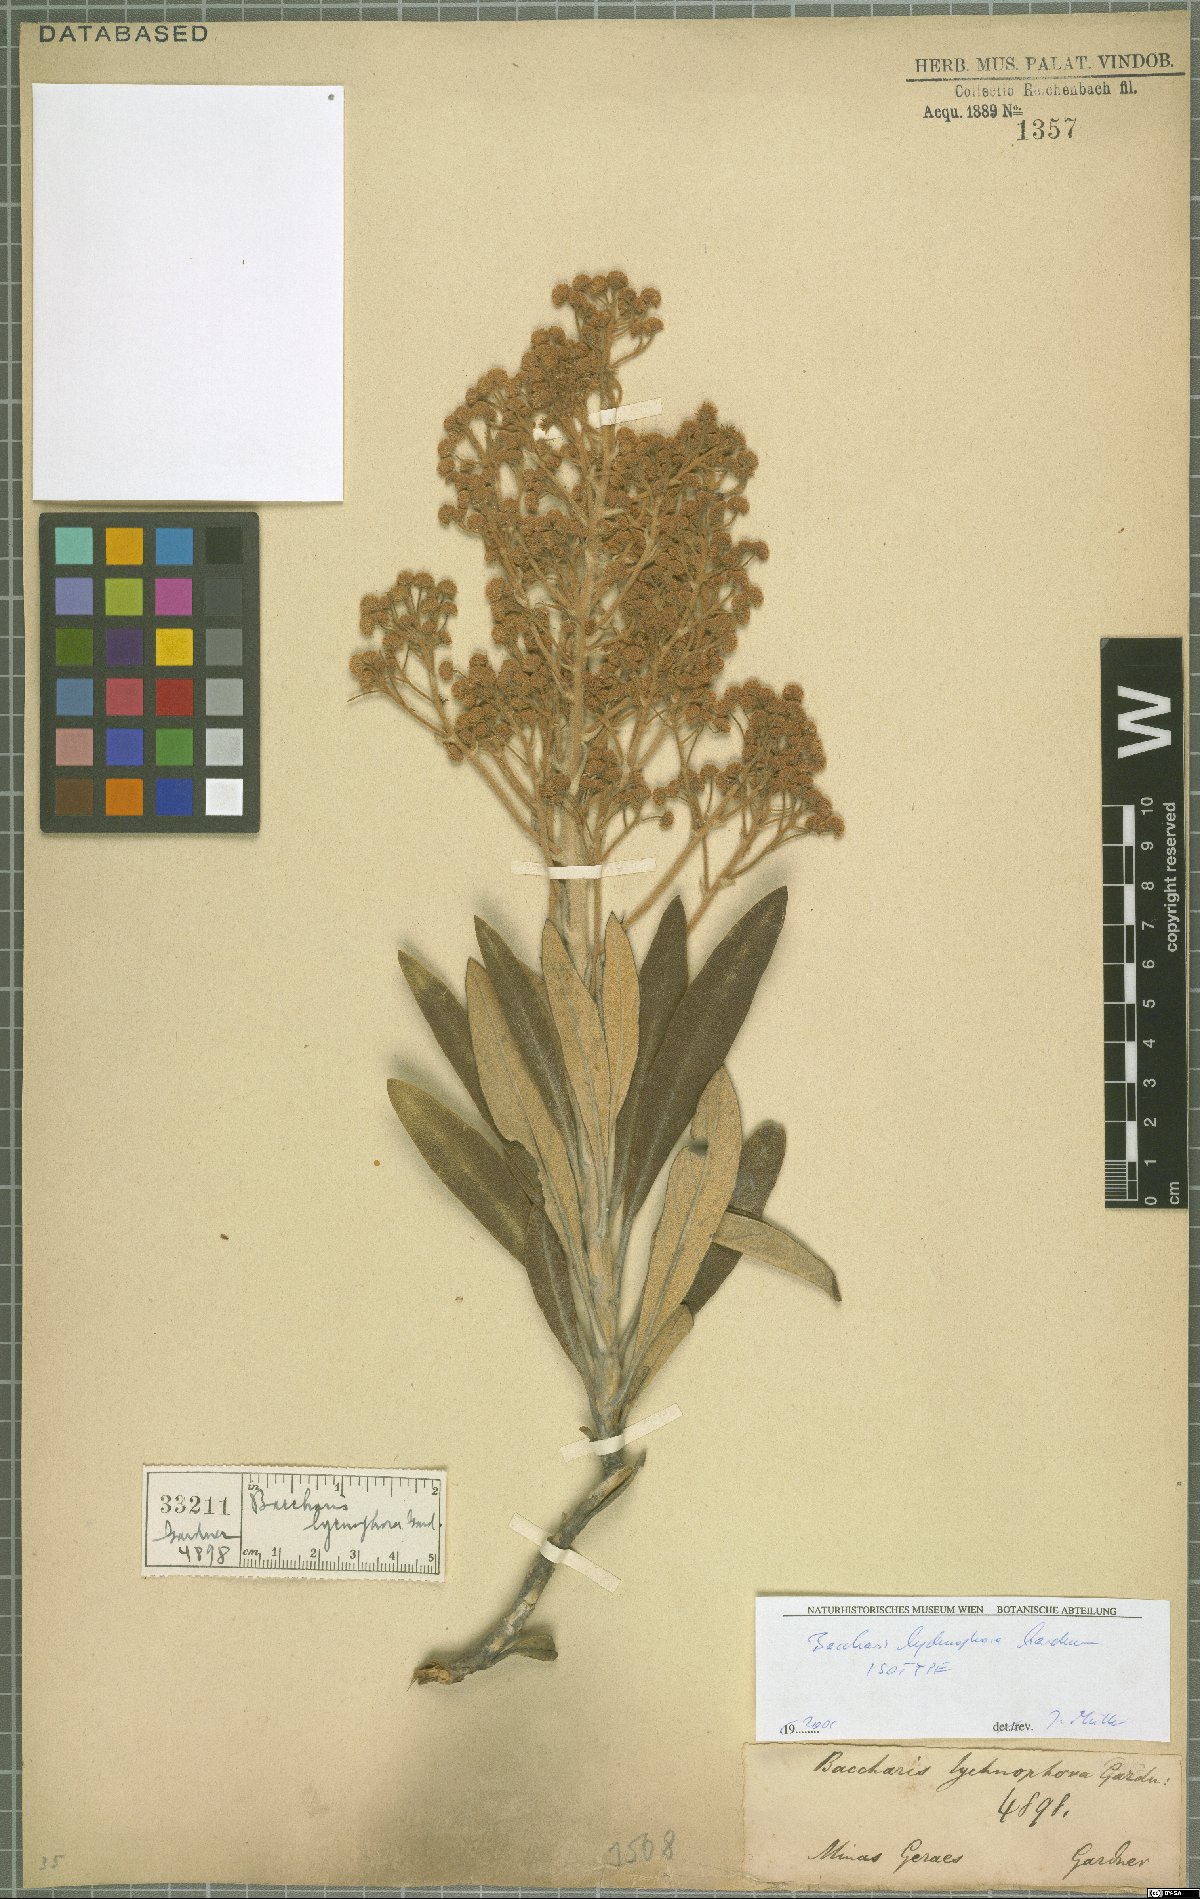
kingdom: Plantae
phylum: Tracheophyta
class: Magnoliopsida
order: Asterales
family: Asteraceae
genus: Baccharis
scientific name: Baccharis lychnophora
